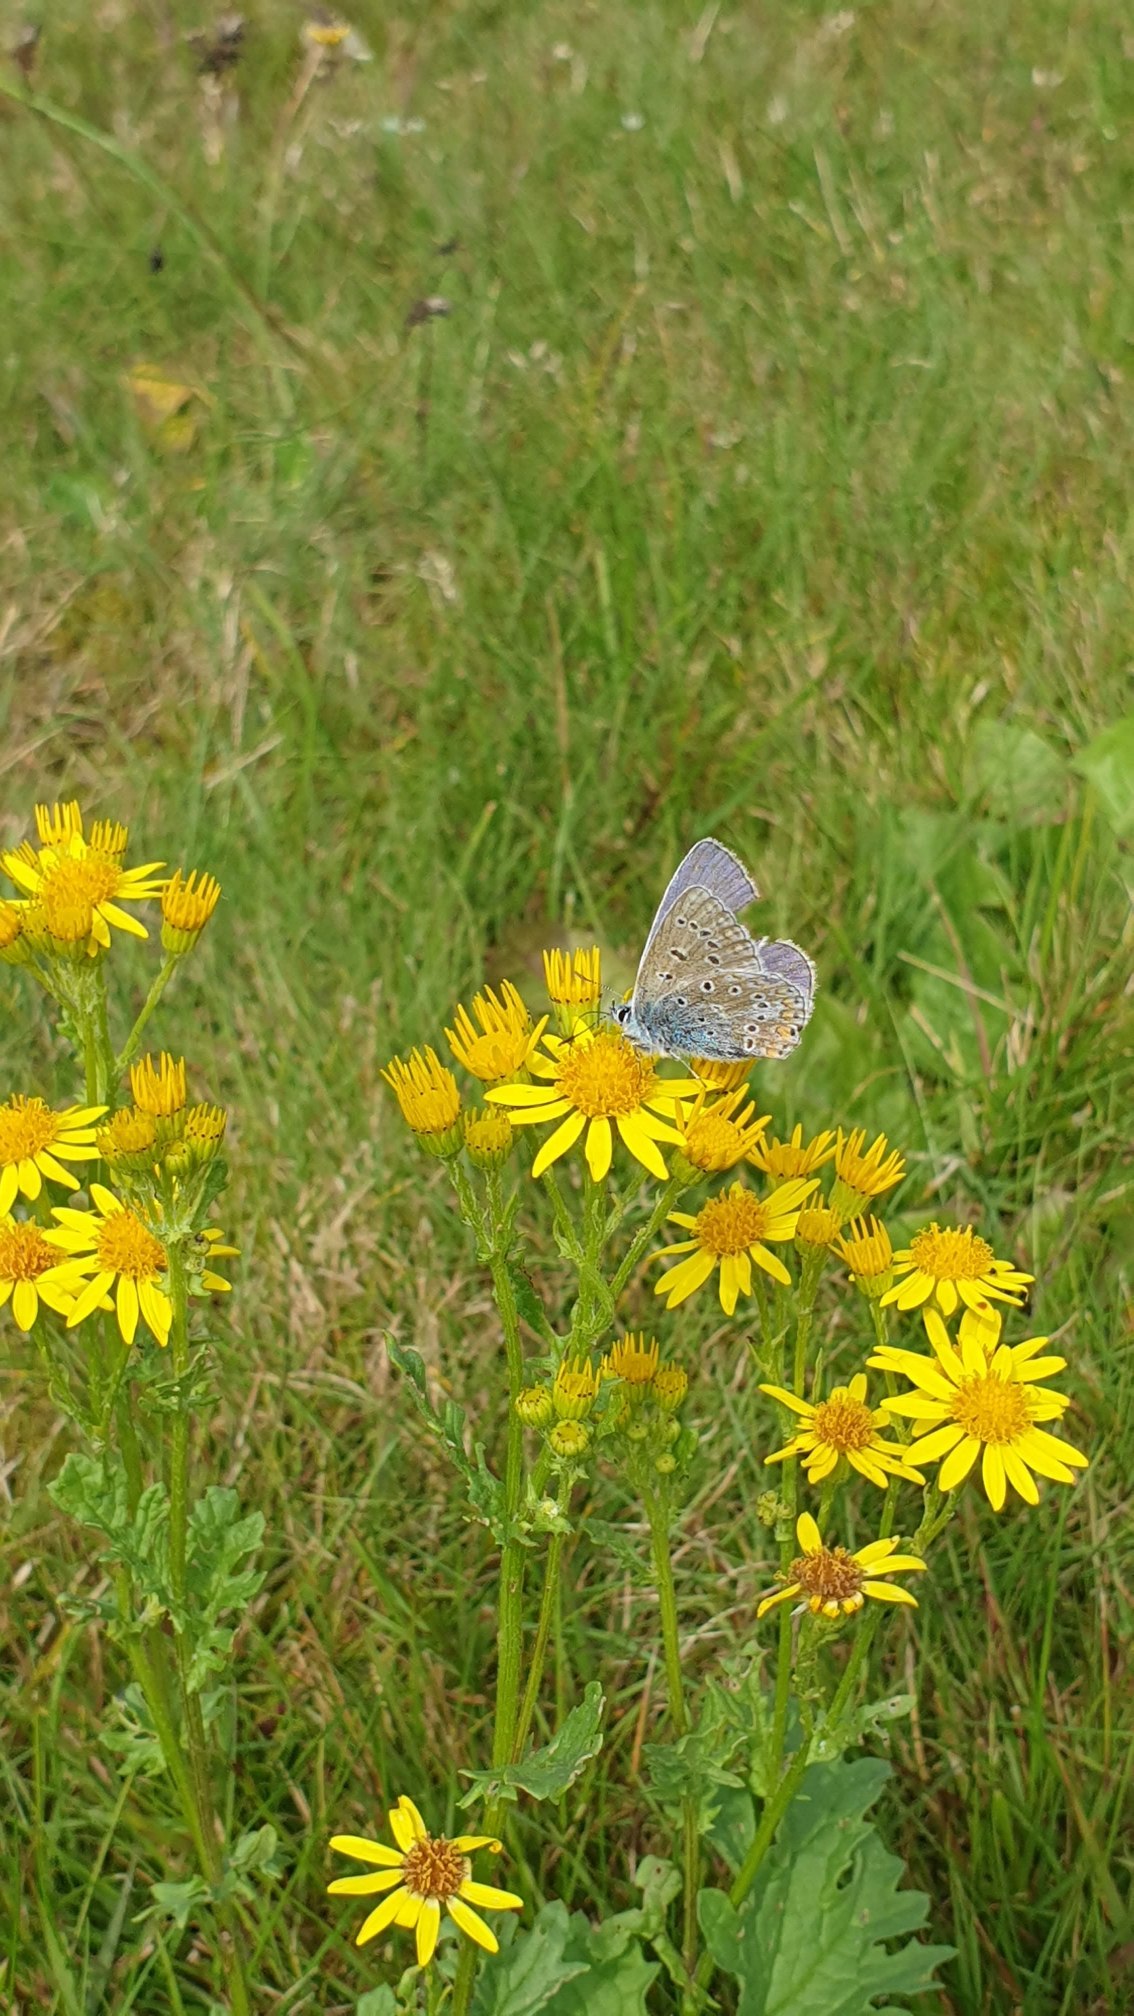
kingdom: Animalia
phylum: Arthropoda
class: Insecta
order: Lepidoptera
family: Lycaenidae
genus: Polyommatus
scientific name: Polyommatus icarus
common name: Almindelig blåfugl
